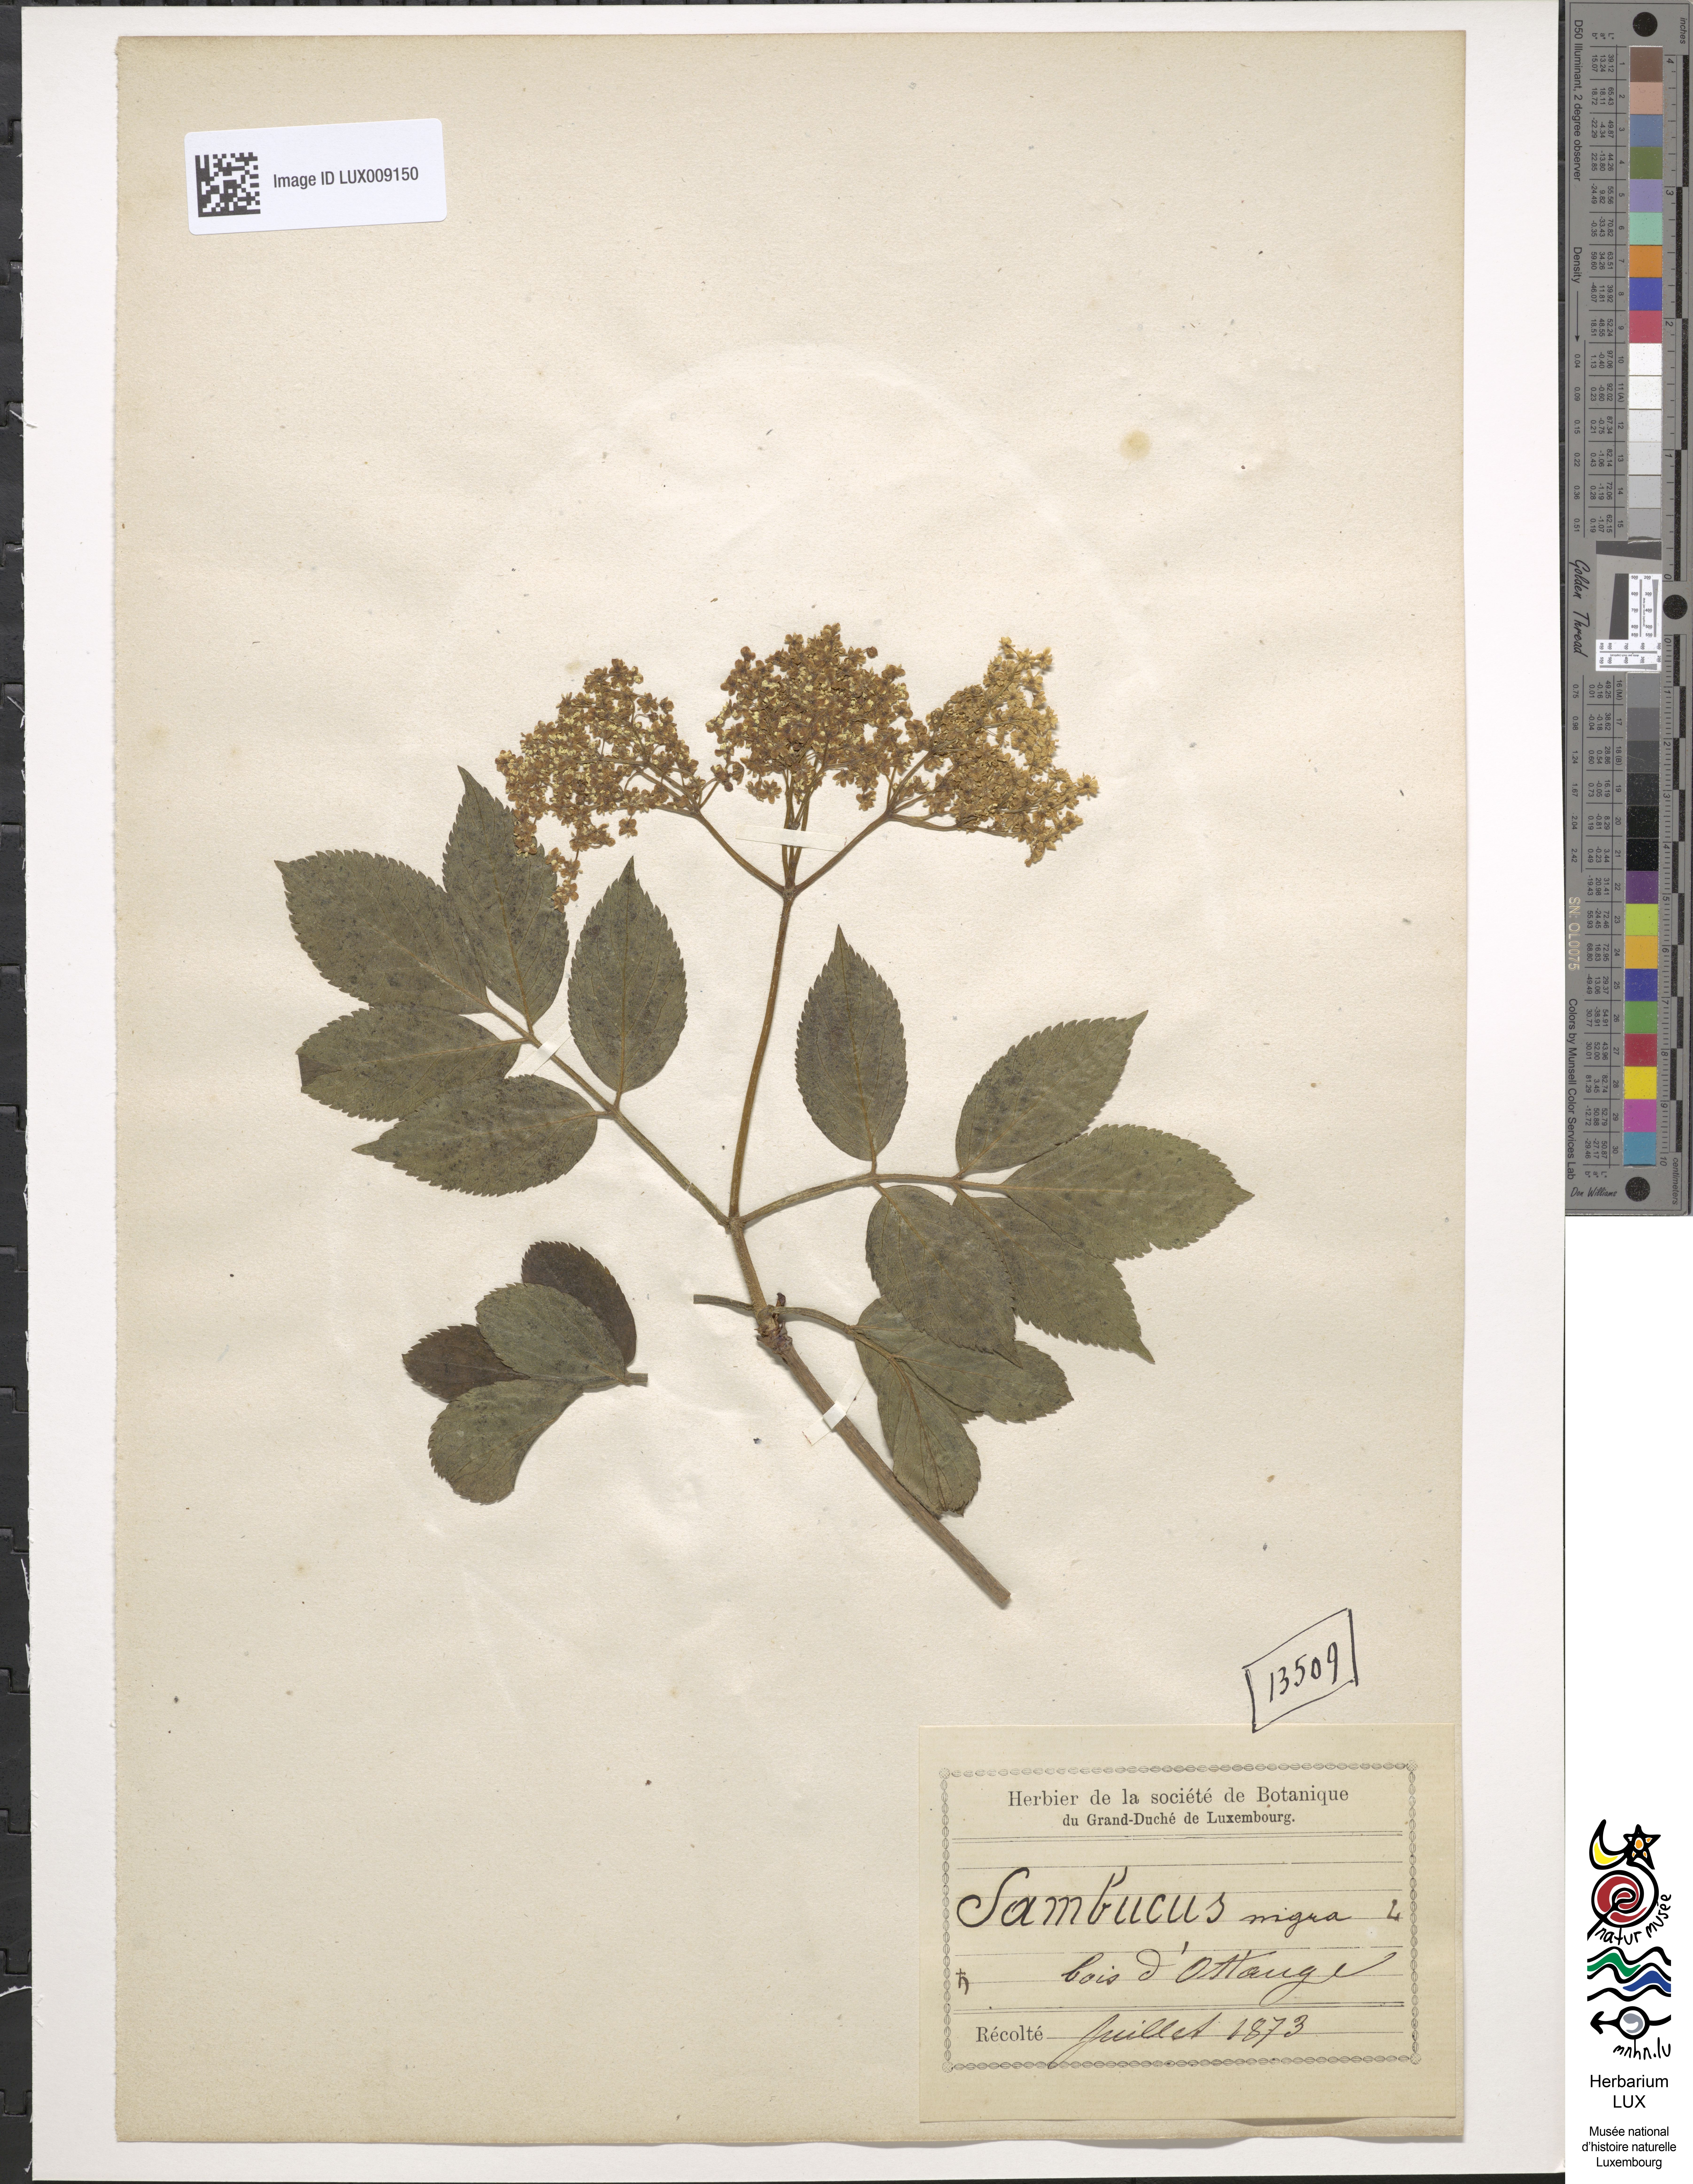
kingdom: Plantae
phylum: Tracheophyta
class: Magnoliopsida
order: Dipsacales
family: Viburnaceae
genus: Sambucus
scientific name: Sambucus nigra
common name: Elder
